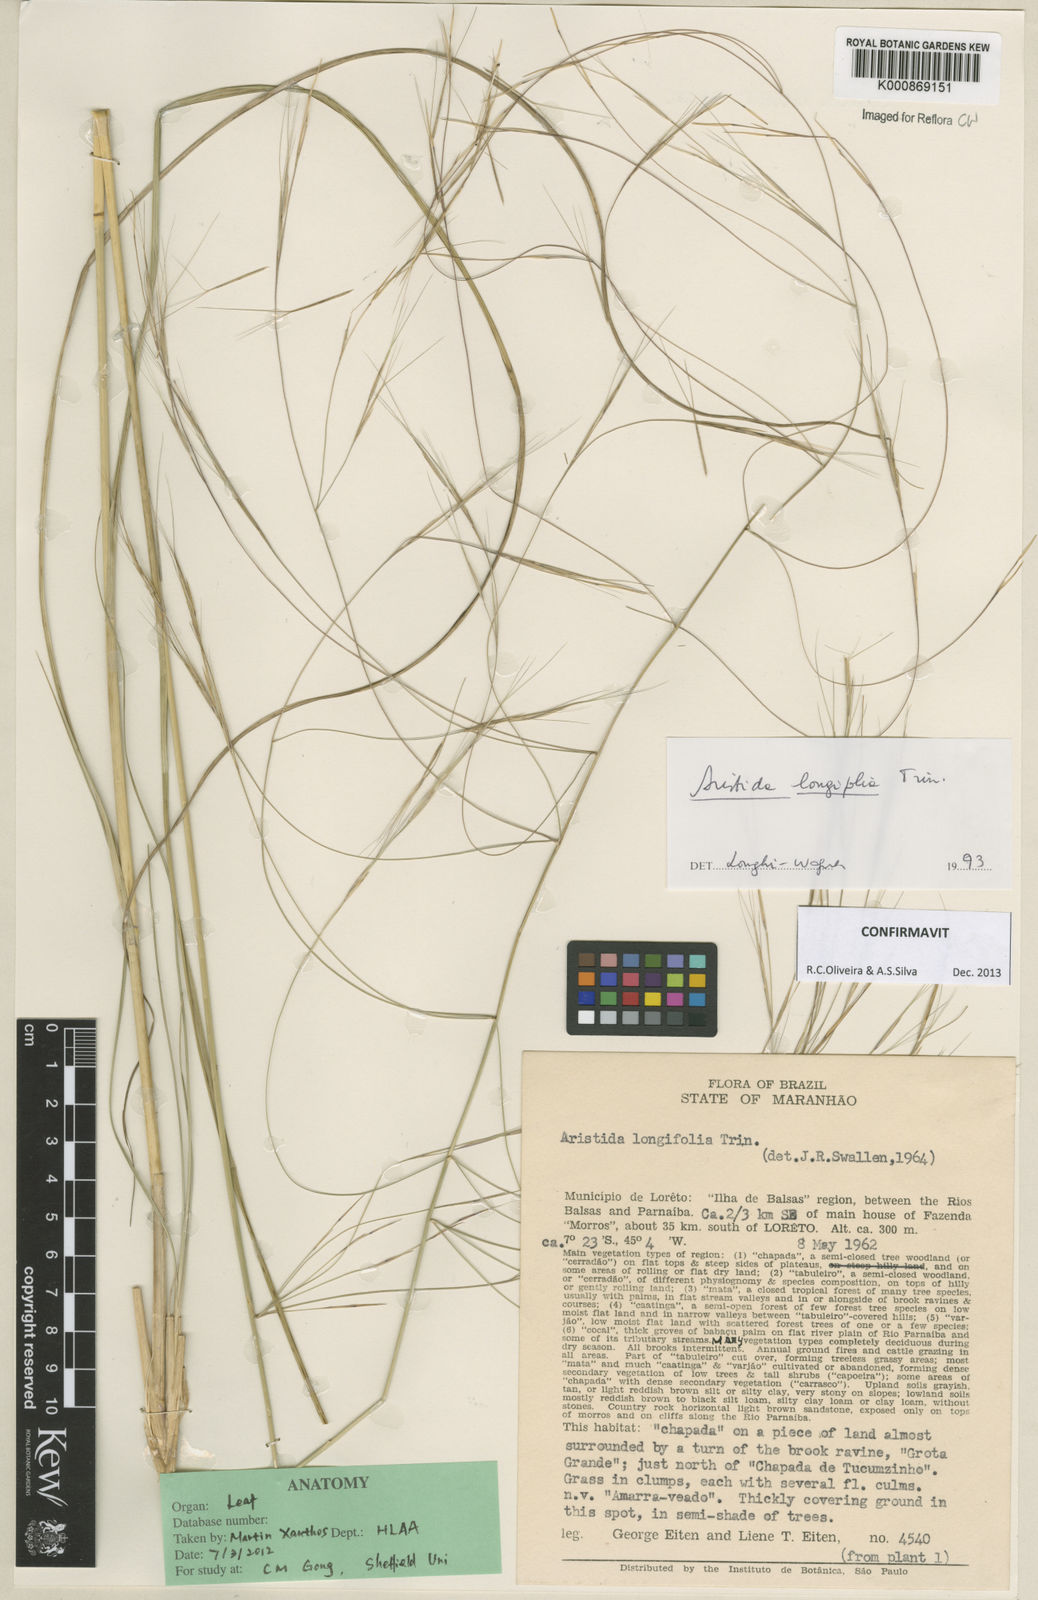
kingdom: Plantae
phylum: Tracheophyta
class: Liliopsida
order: Poales
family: Poaceae
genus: Aristida
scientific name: Aristida longifolia
